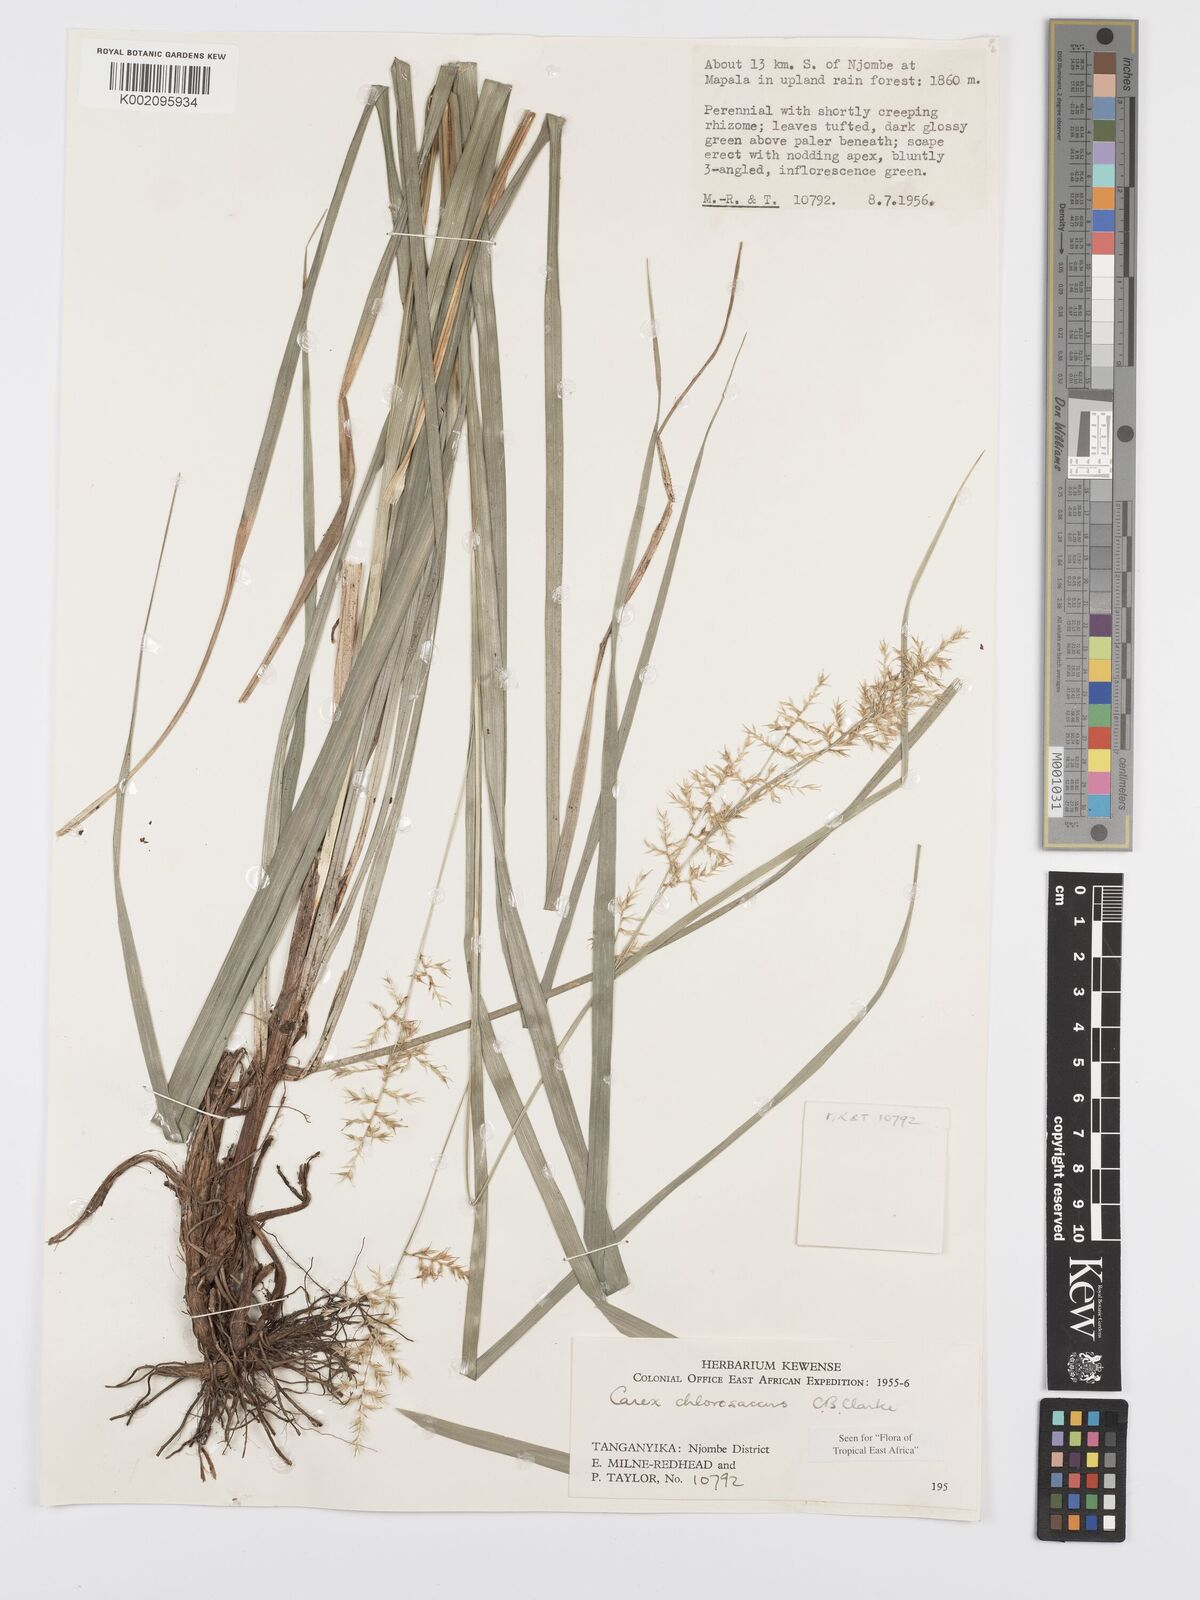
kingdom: Plantae
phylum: Tracheophyta
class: Liliopsida
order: Poales
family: Cyperaceae
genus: Carex
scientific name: Carex chlorosaccus
